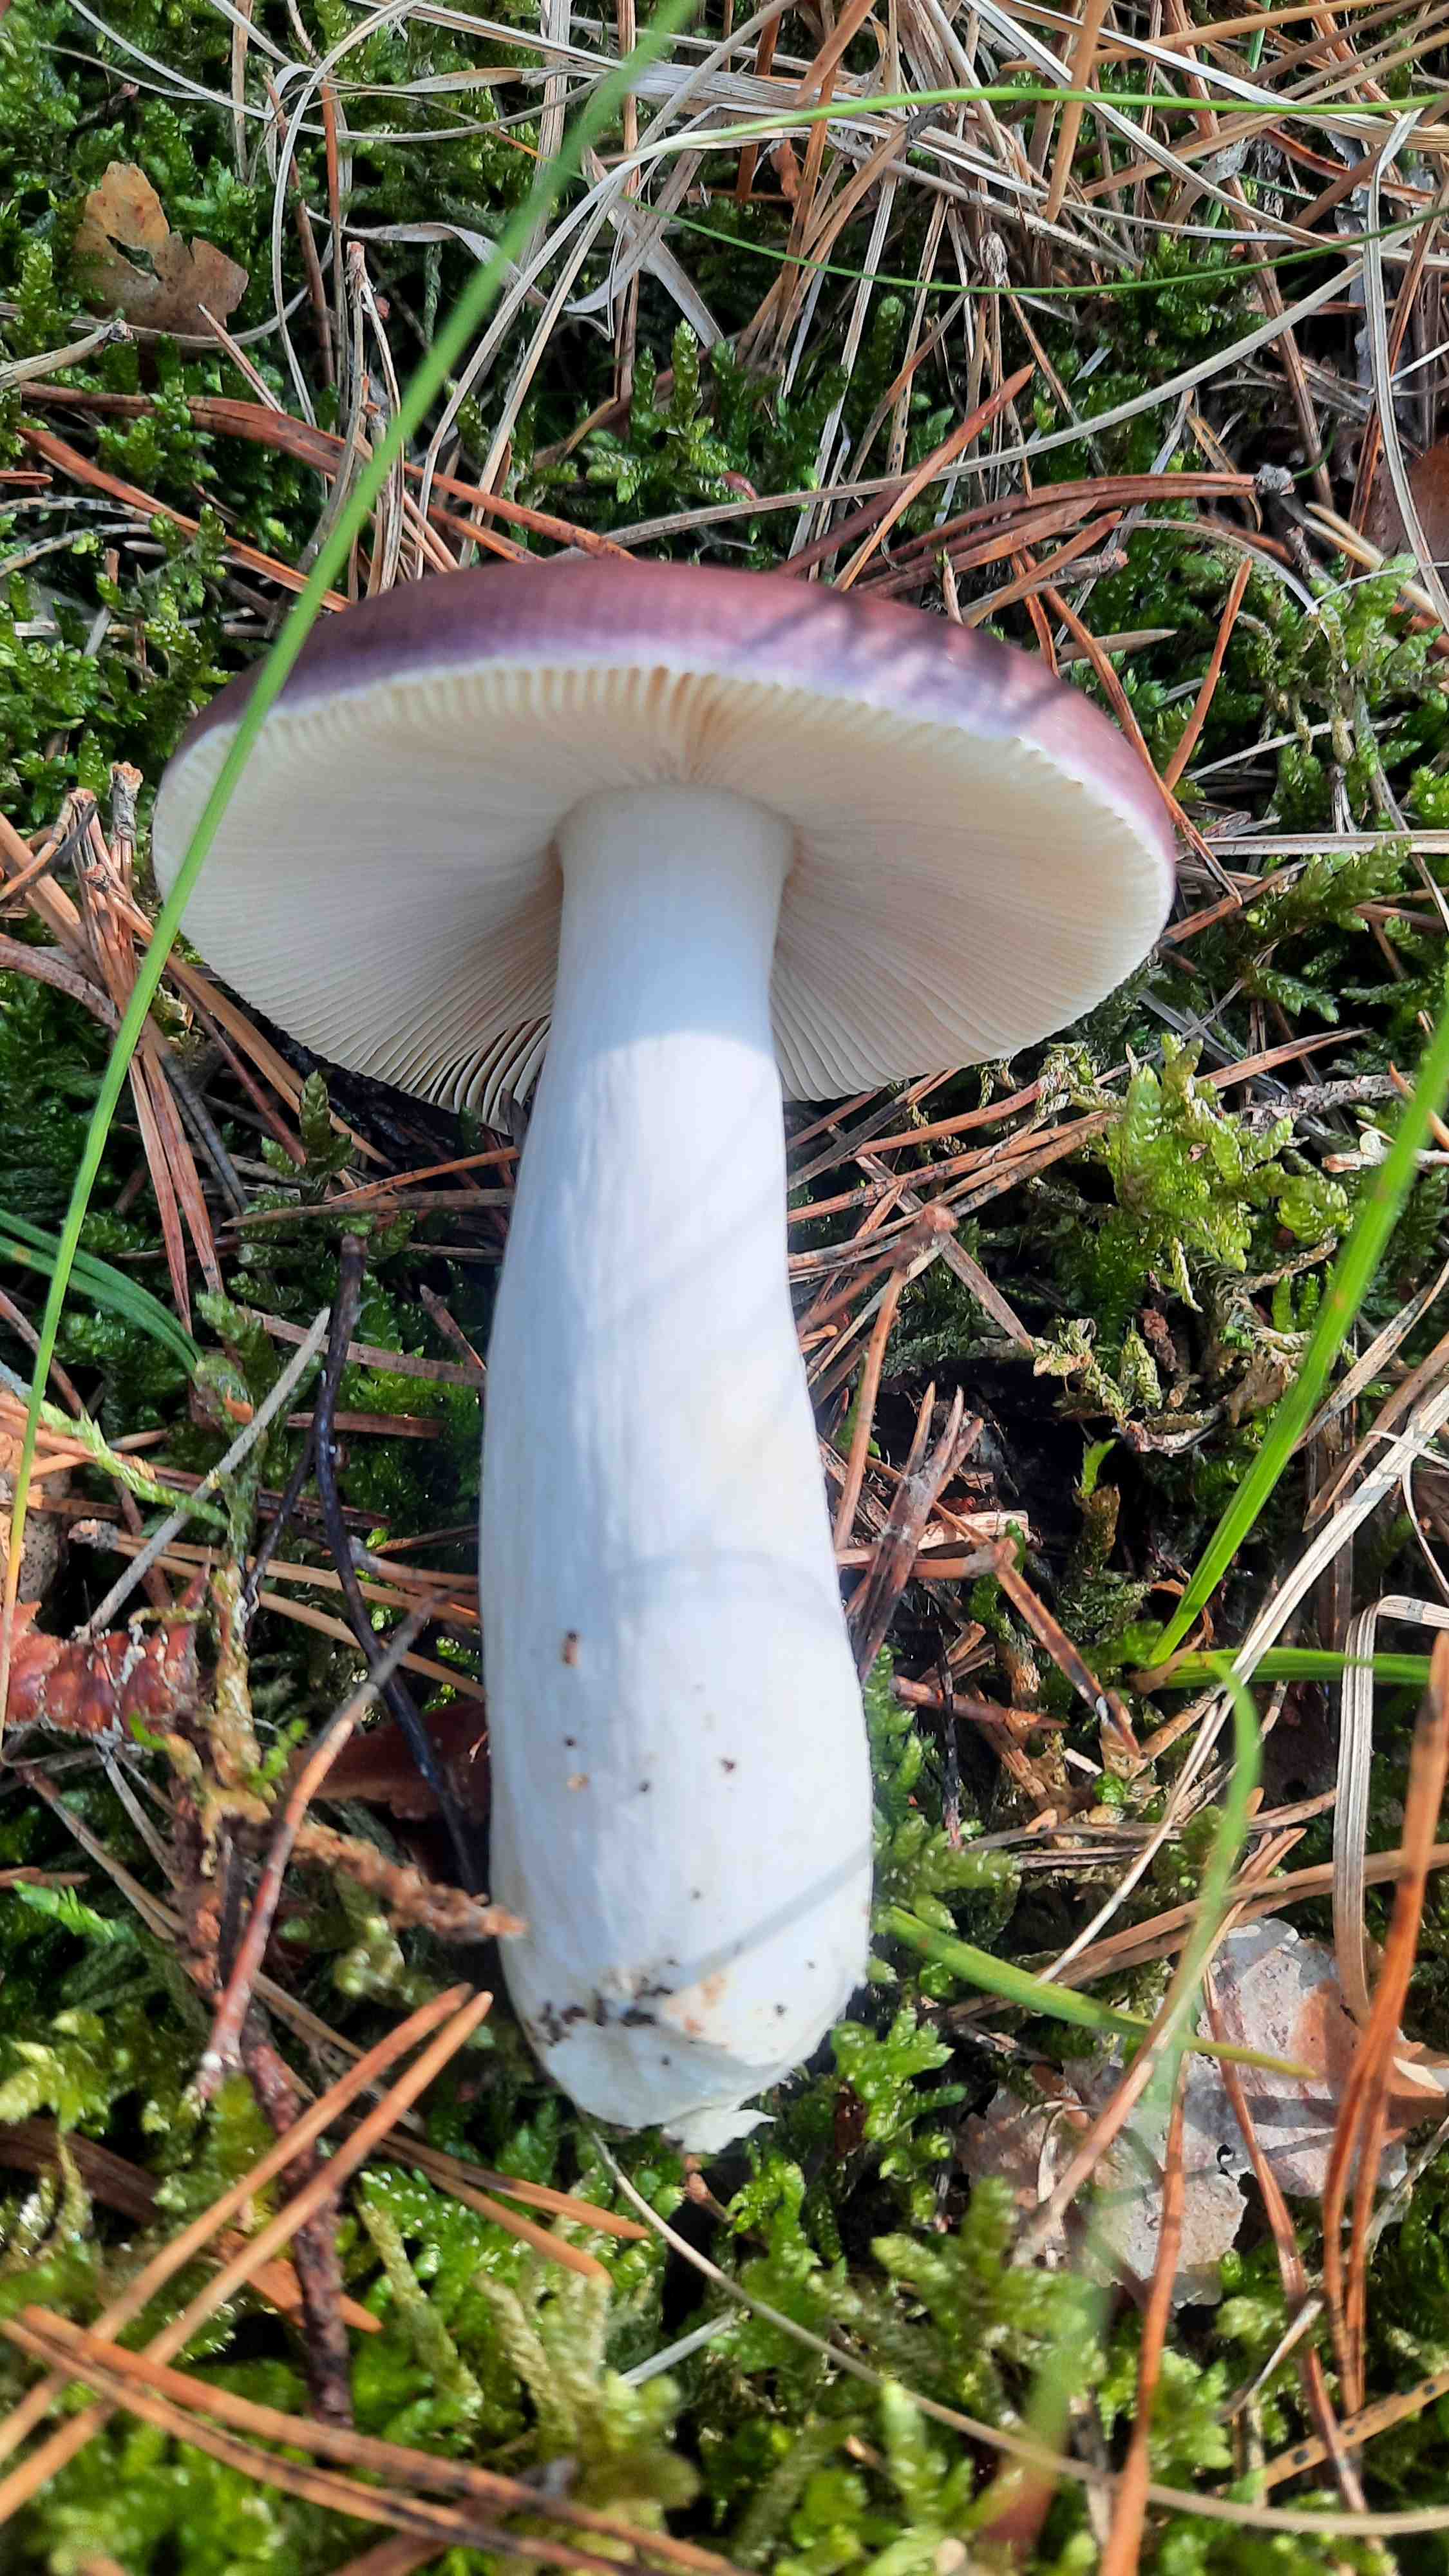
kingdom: Fungi
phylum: Basidiomycota
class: Agaricomycetes
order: Russulales
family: Russulaceae
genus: Russula
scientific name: Russula caerulea
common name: puklet skørhat
